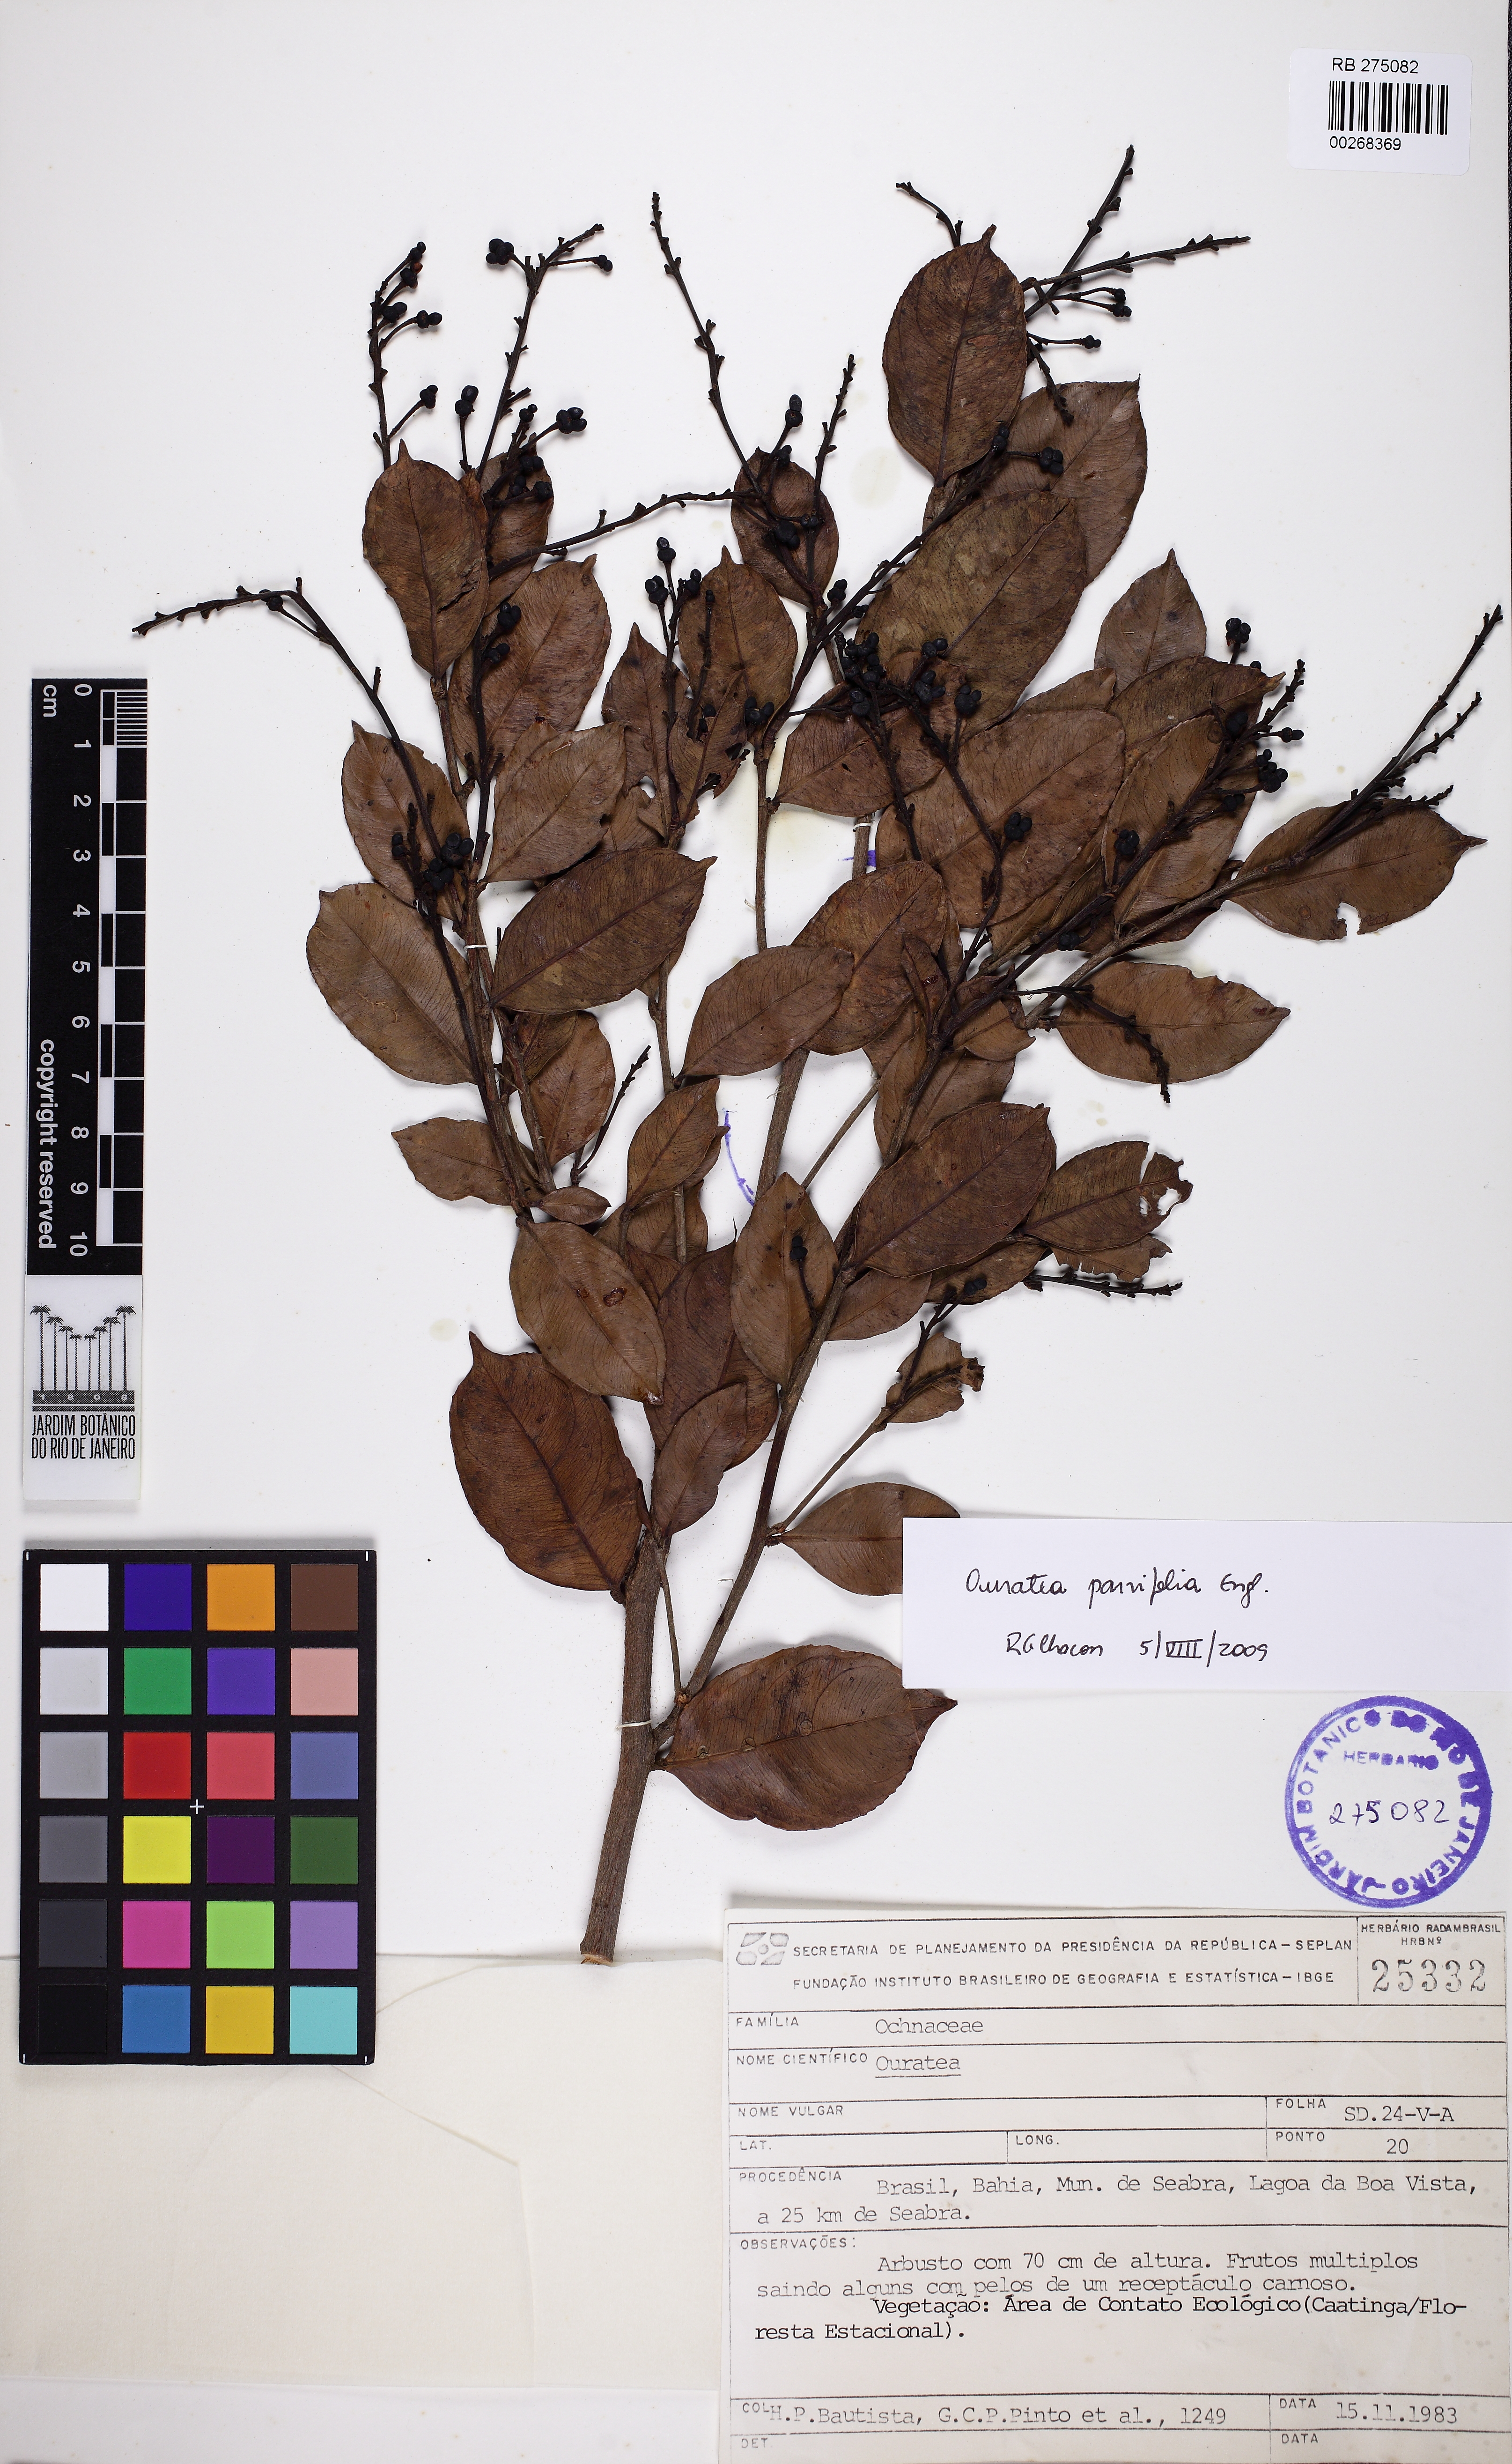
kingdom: Plantae
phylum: Tracheophyta
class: Magnoliopsida
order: Malpighiales
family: Ochnaceae
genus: Ouratea
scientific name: Ouratea parvifolia
